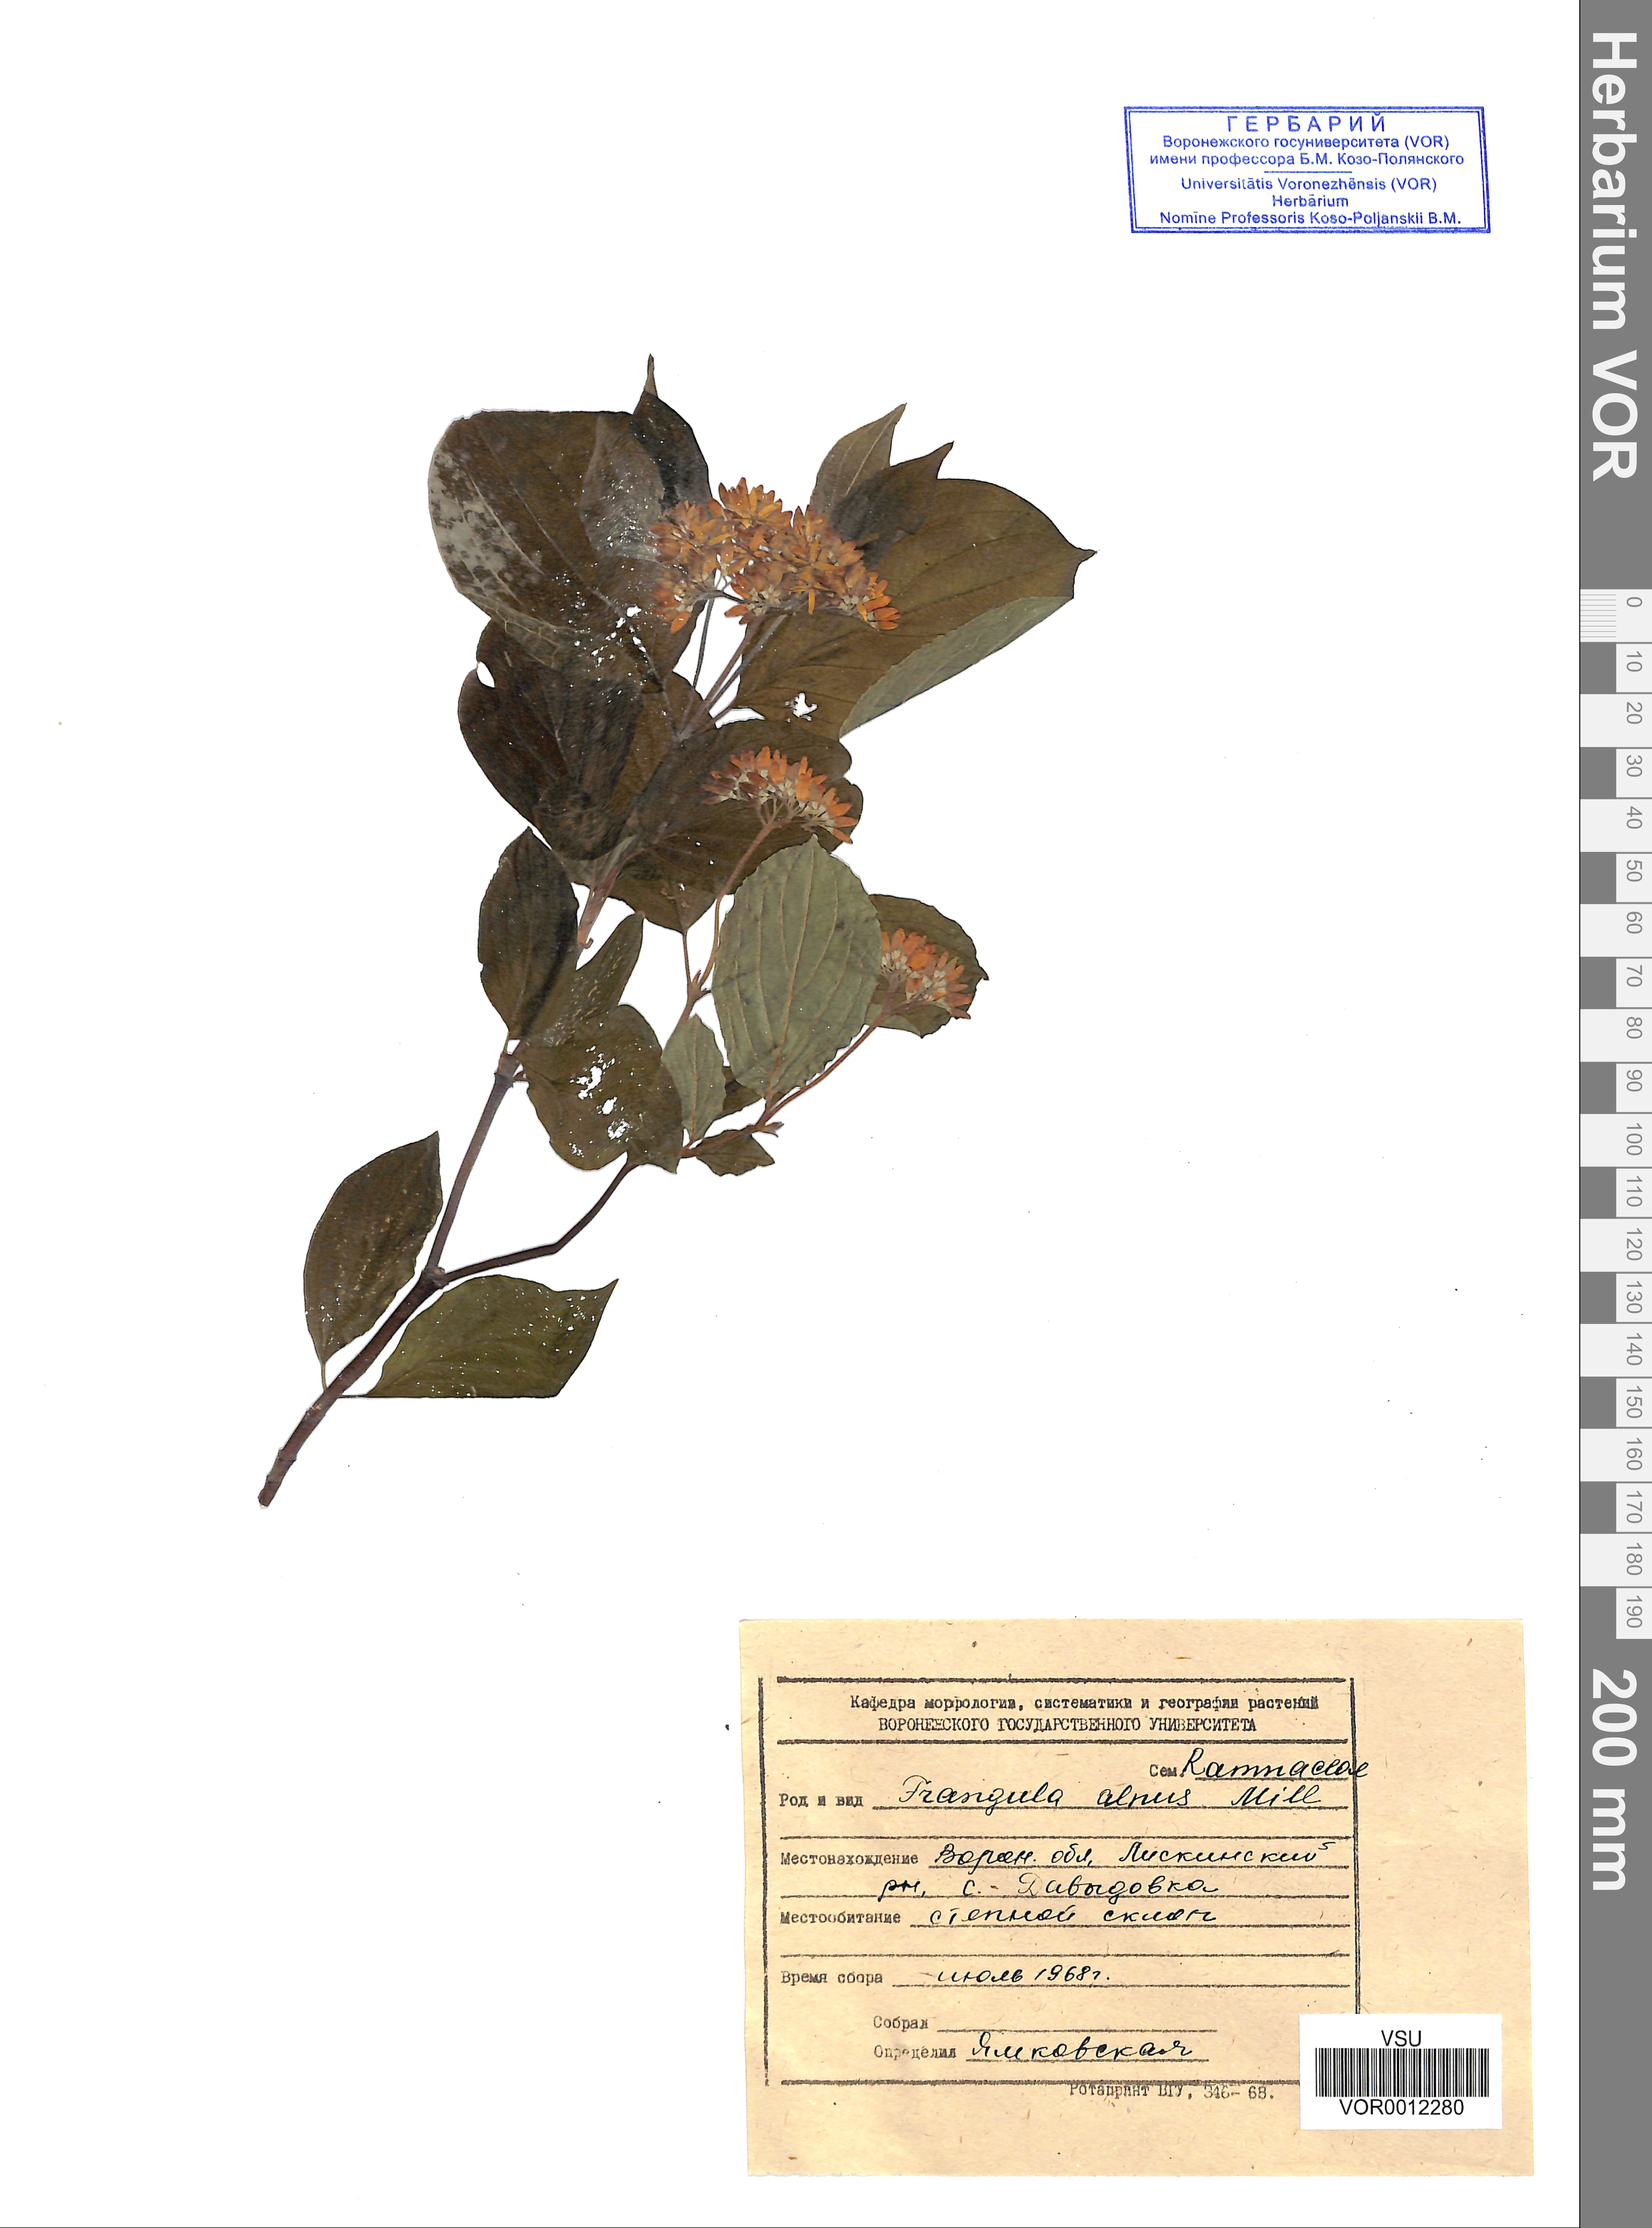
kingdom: Plantae
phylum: Tracheophyta
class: Magnoliopsida
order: Rosales
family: Rhamnaceae
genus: Frangula
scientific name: Frangula alnus
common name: Alder buckthorn
